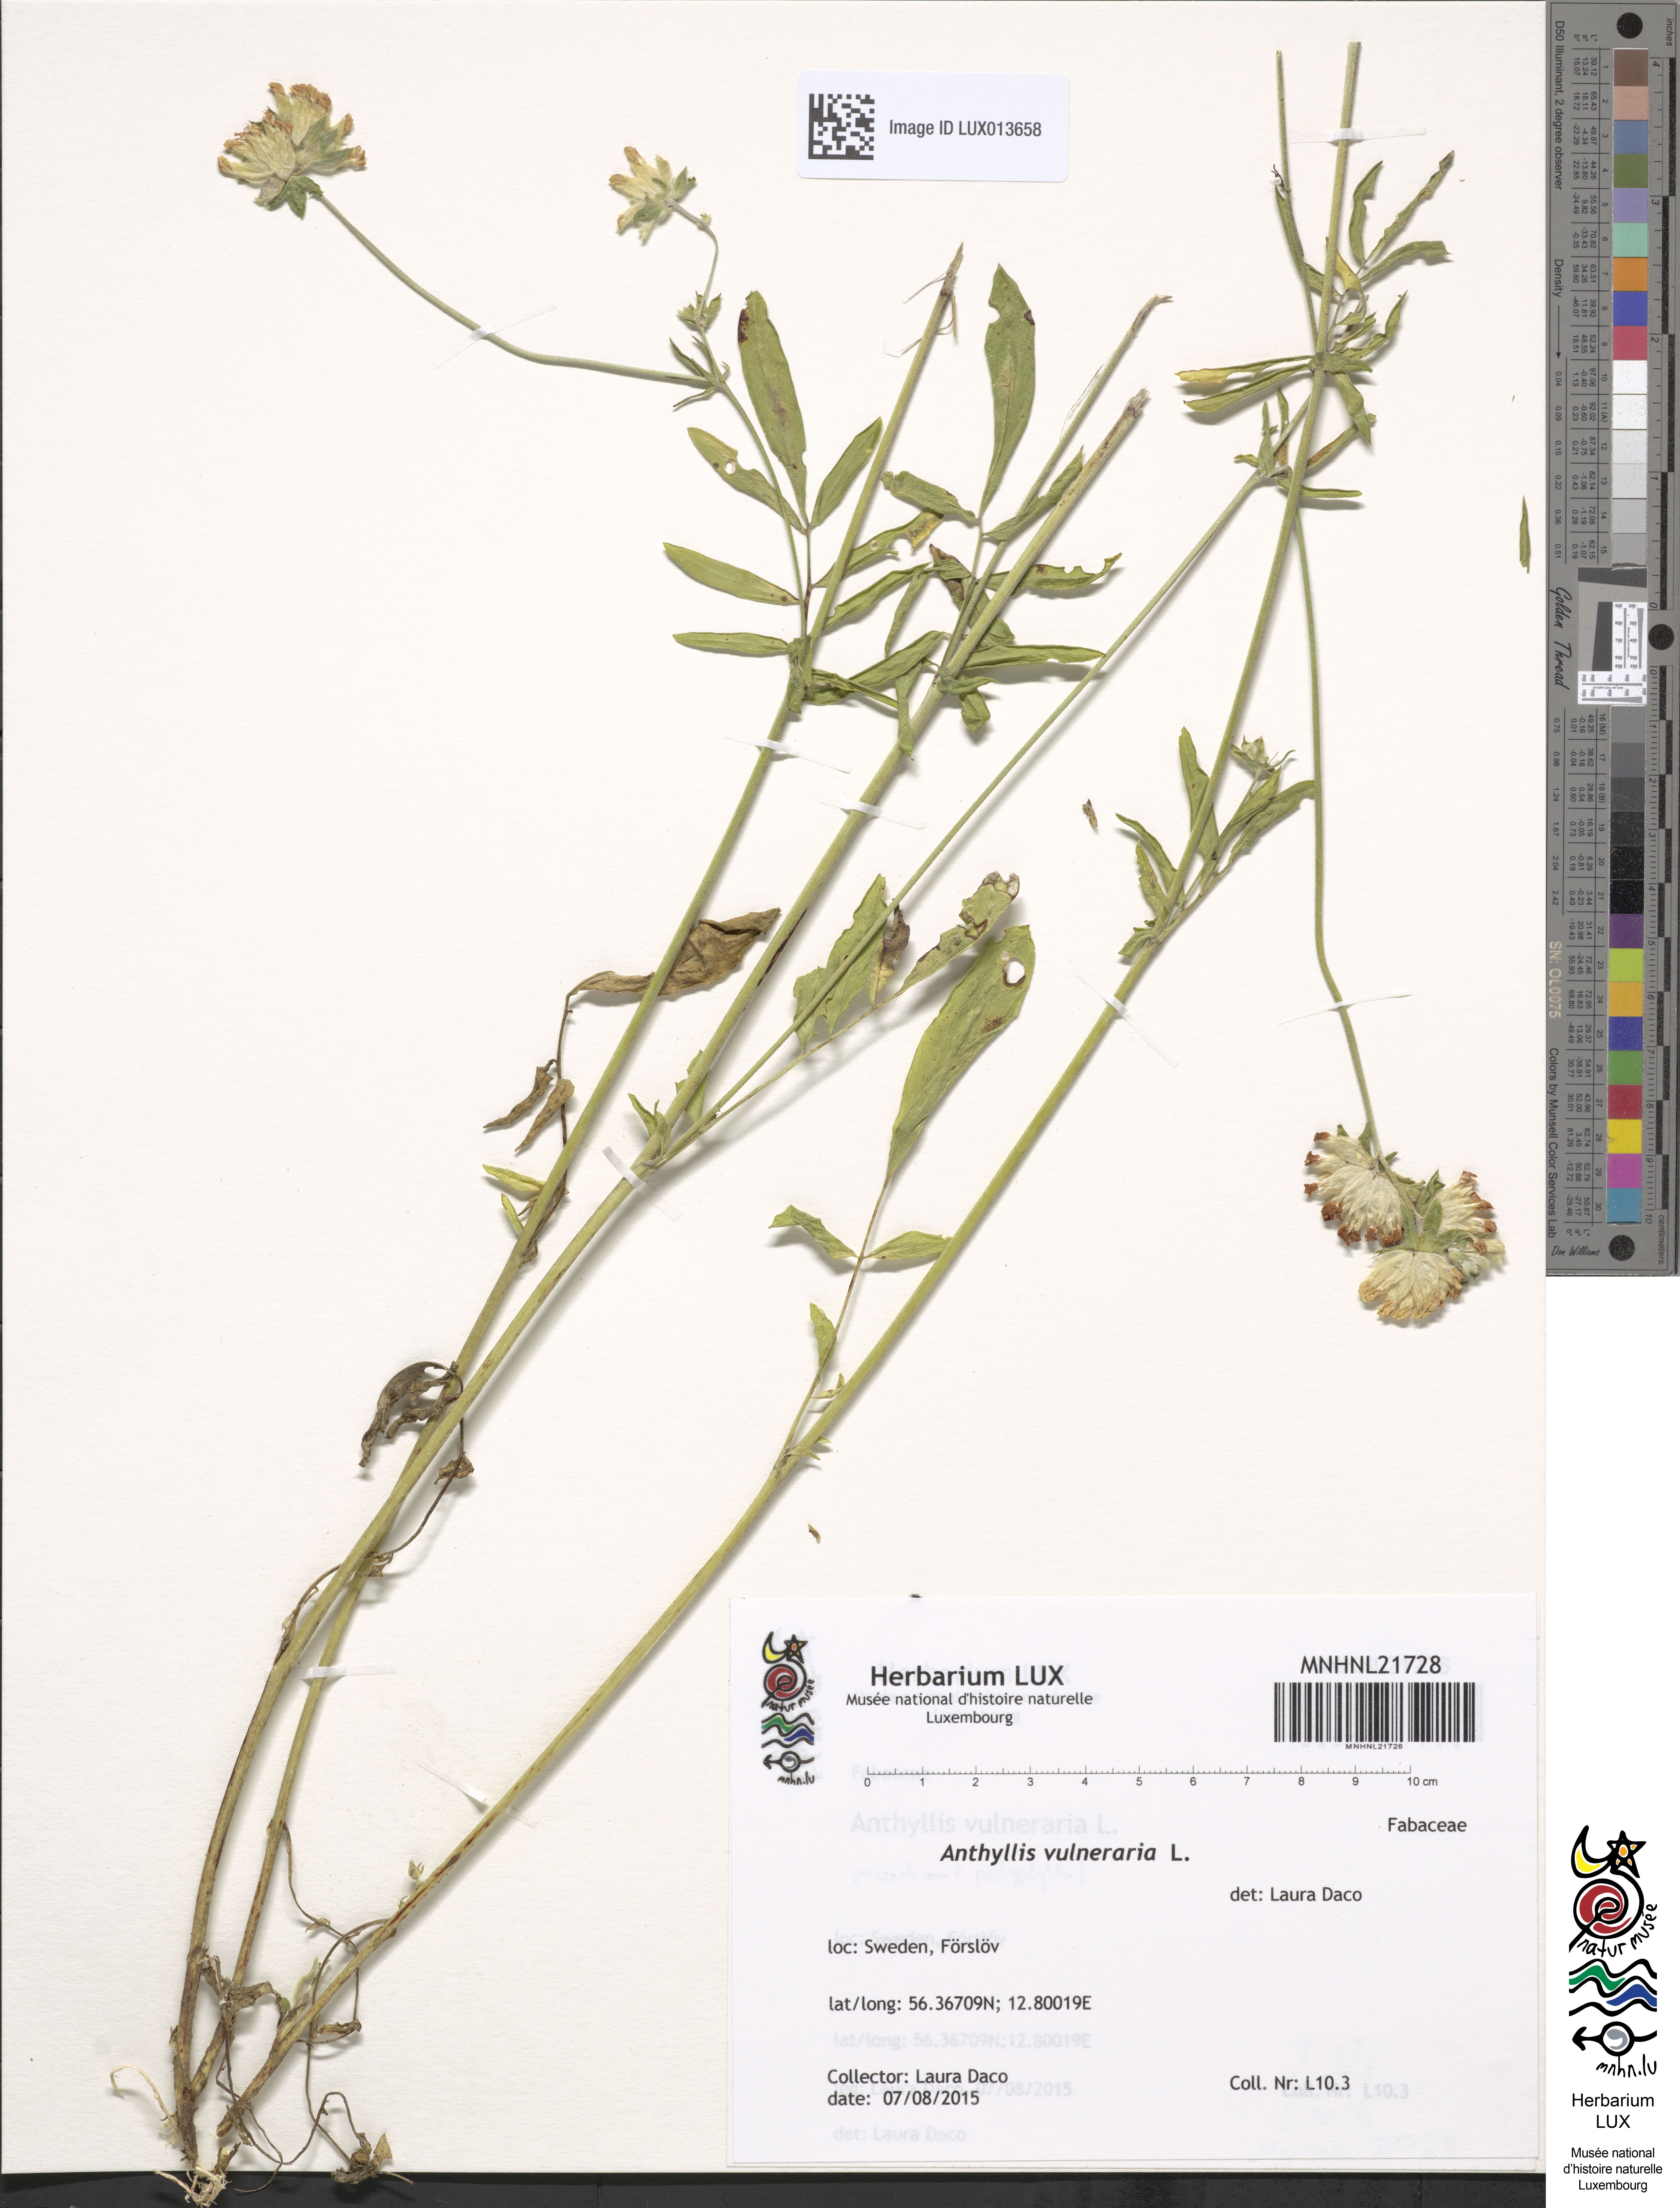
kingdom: Plantae
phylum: Tracheophyta
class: Magnoliopsida
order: Fabales
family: Fabaceae
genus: Anthyllis
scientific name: Anthyllis vulneraria
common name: Kidney vetch
